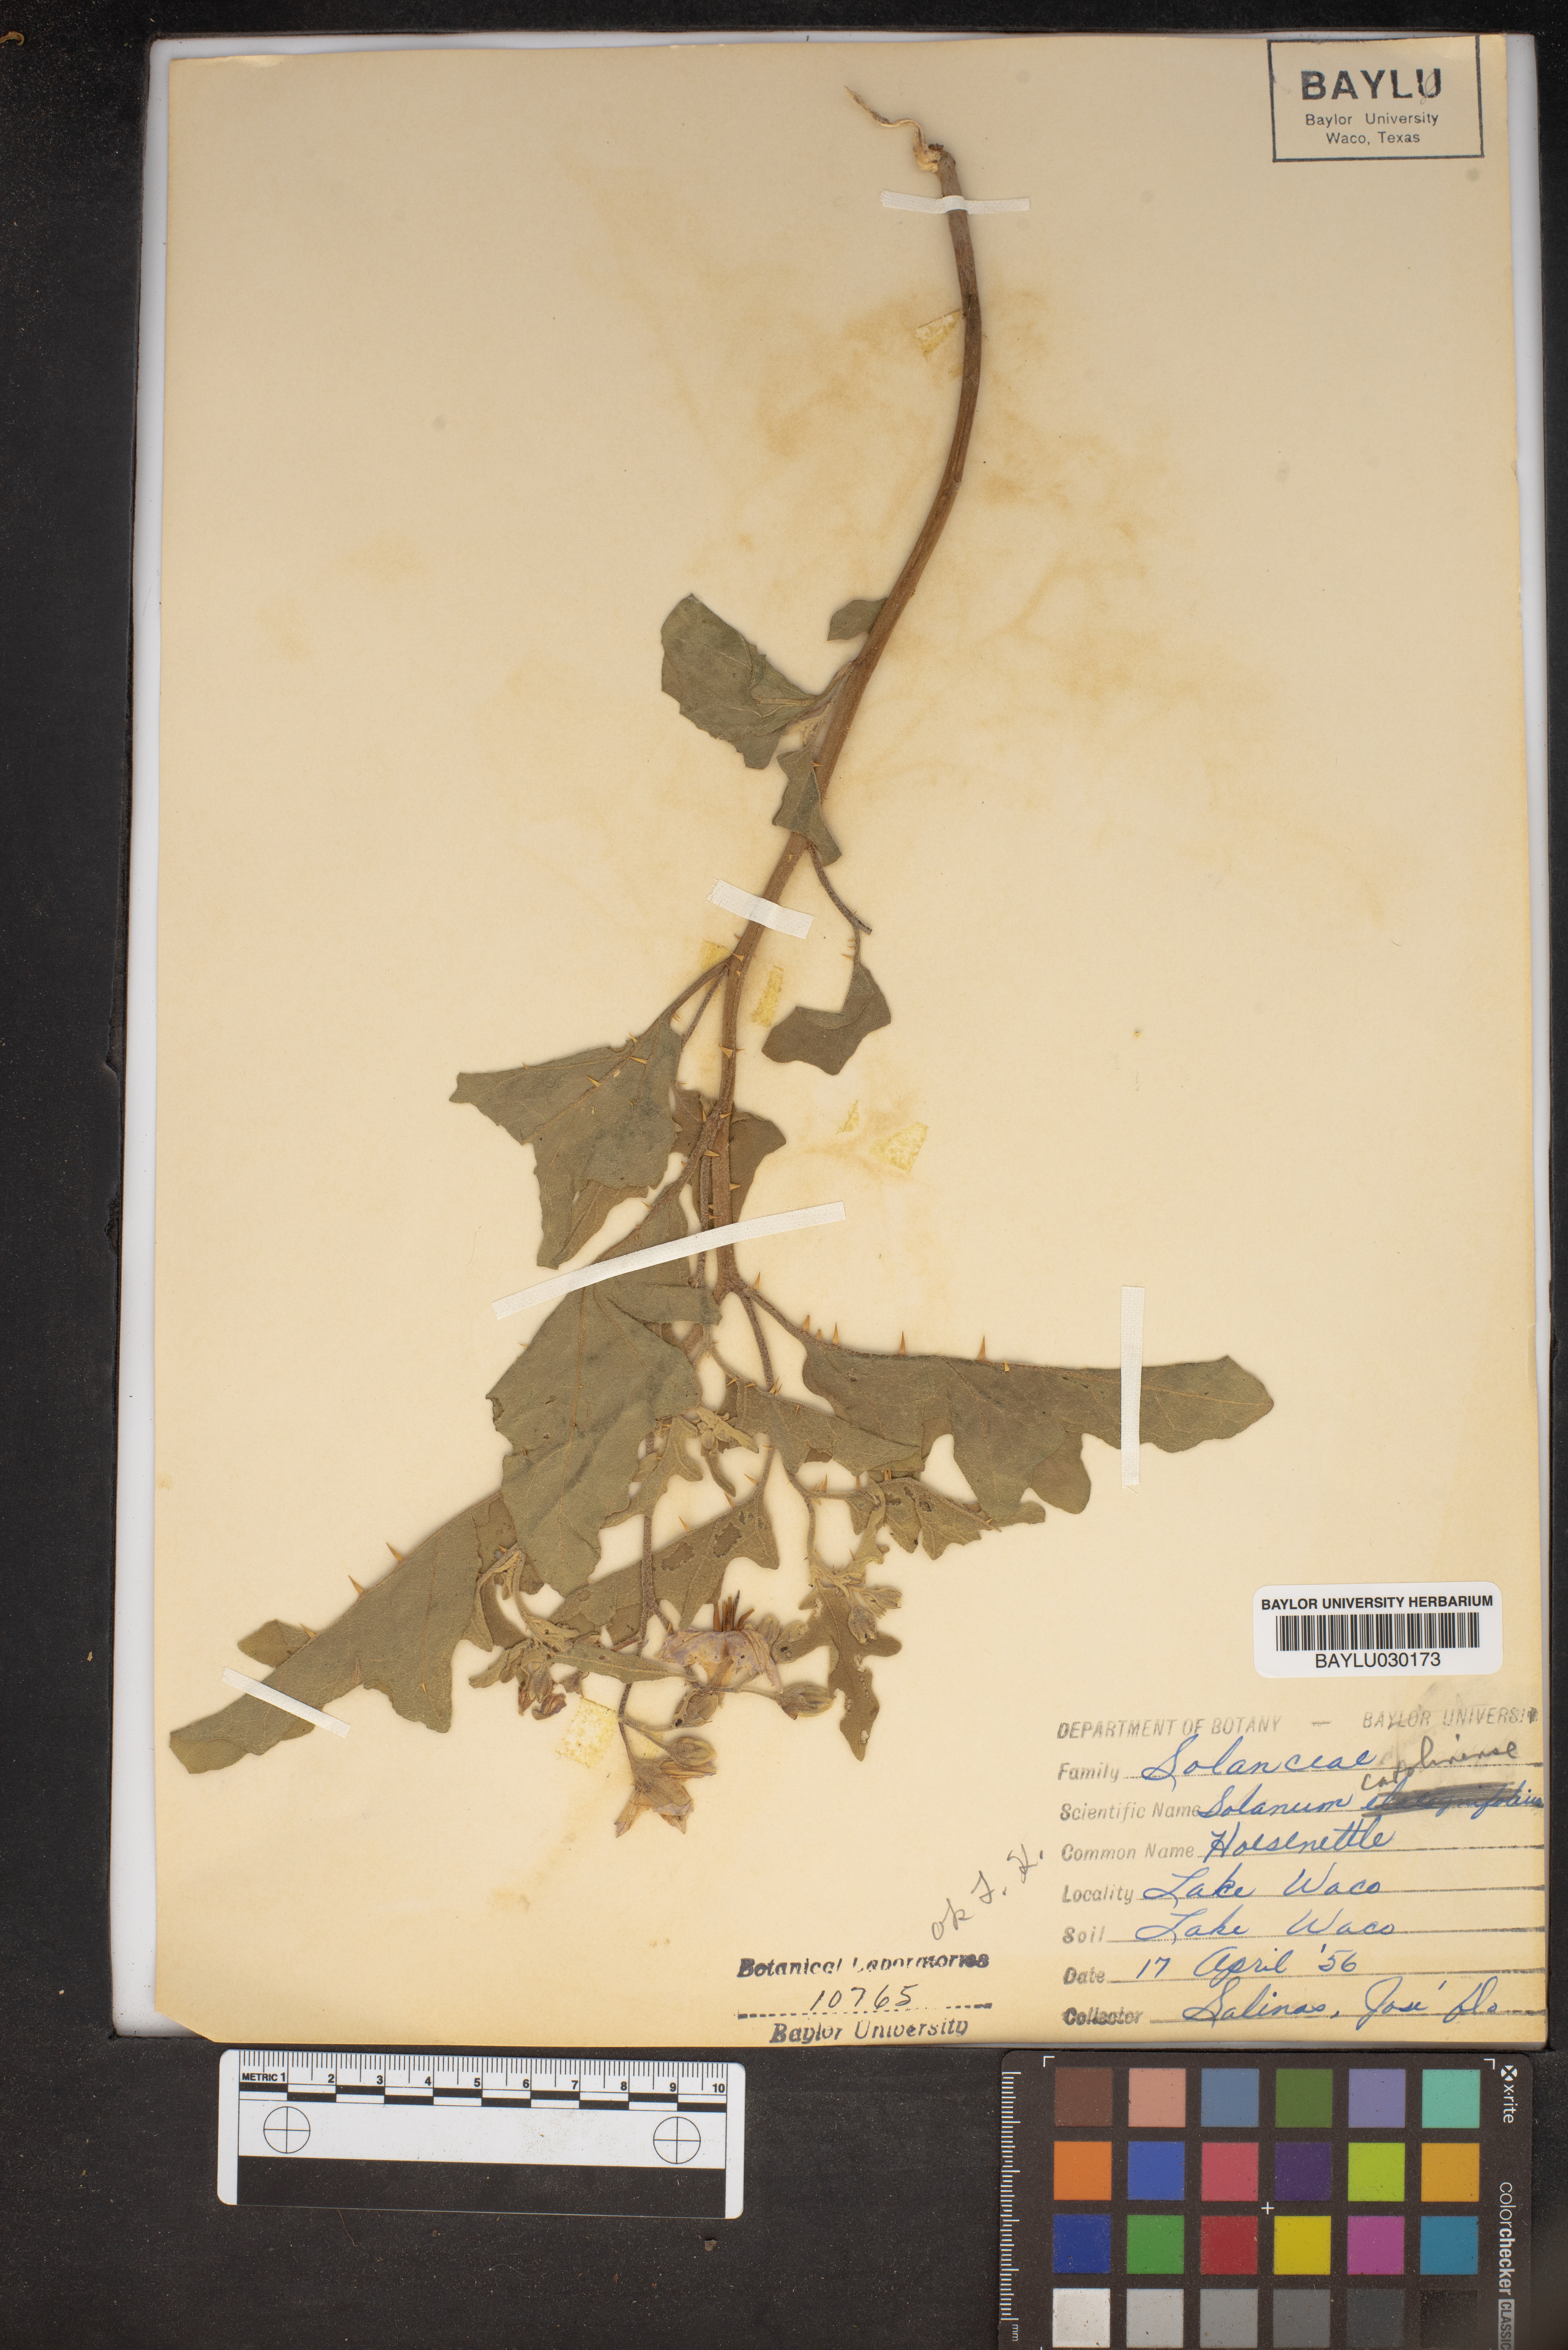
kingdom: Plantae
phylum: Tracheophyta
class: Magnoliopsida
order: Solanales
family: Solanaceae
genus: Solanum
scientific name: Solanum
